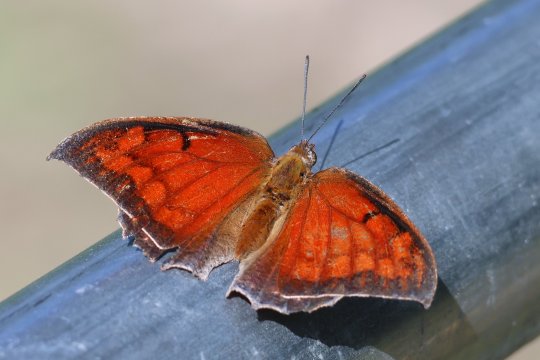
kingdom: Animalia
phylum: Arthropoda
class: Insecta
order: Lepidoptera
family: Nymphalidae
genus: Anaea
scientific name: Anaea aidea
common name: Tropical Leafwing
